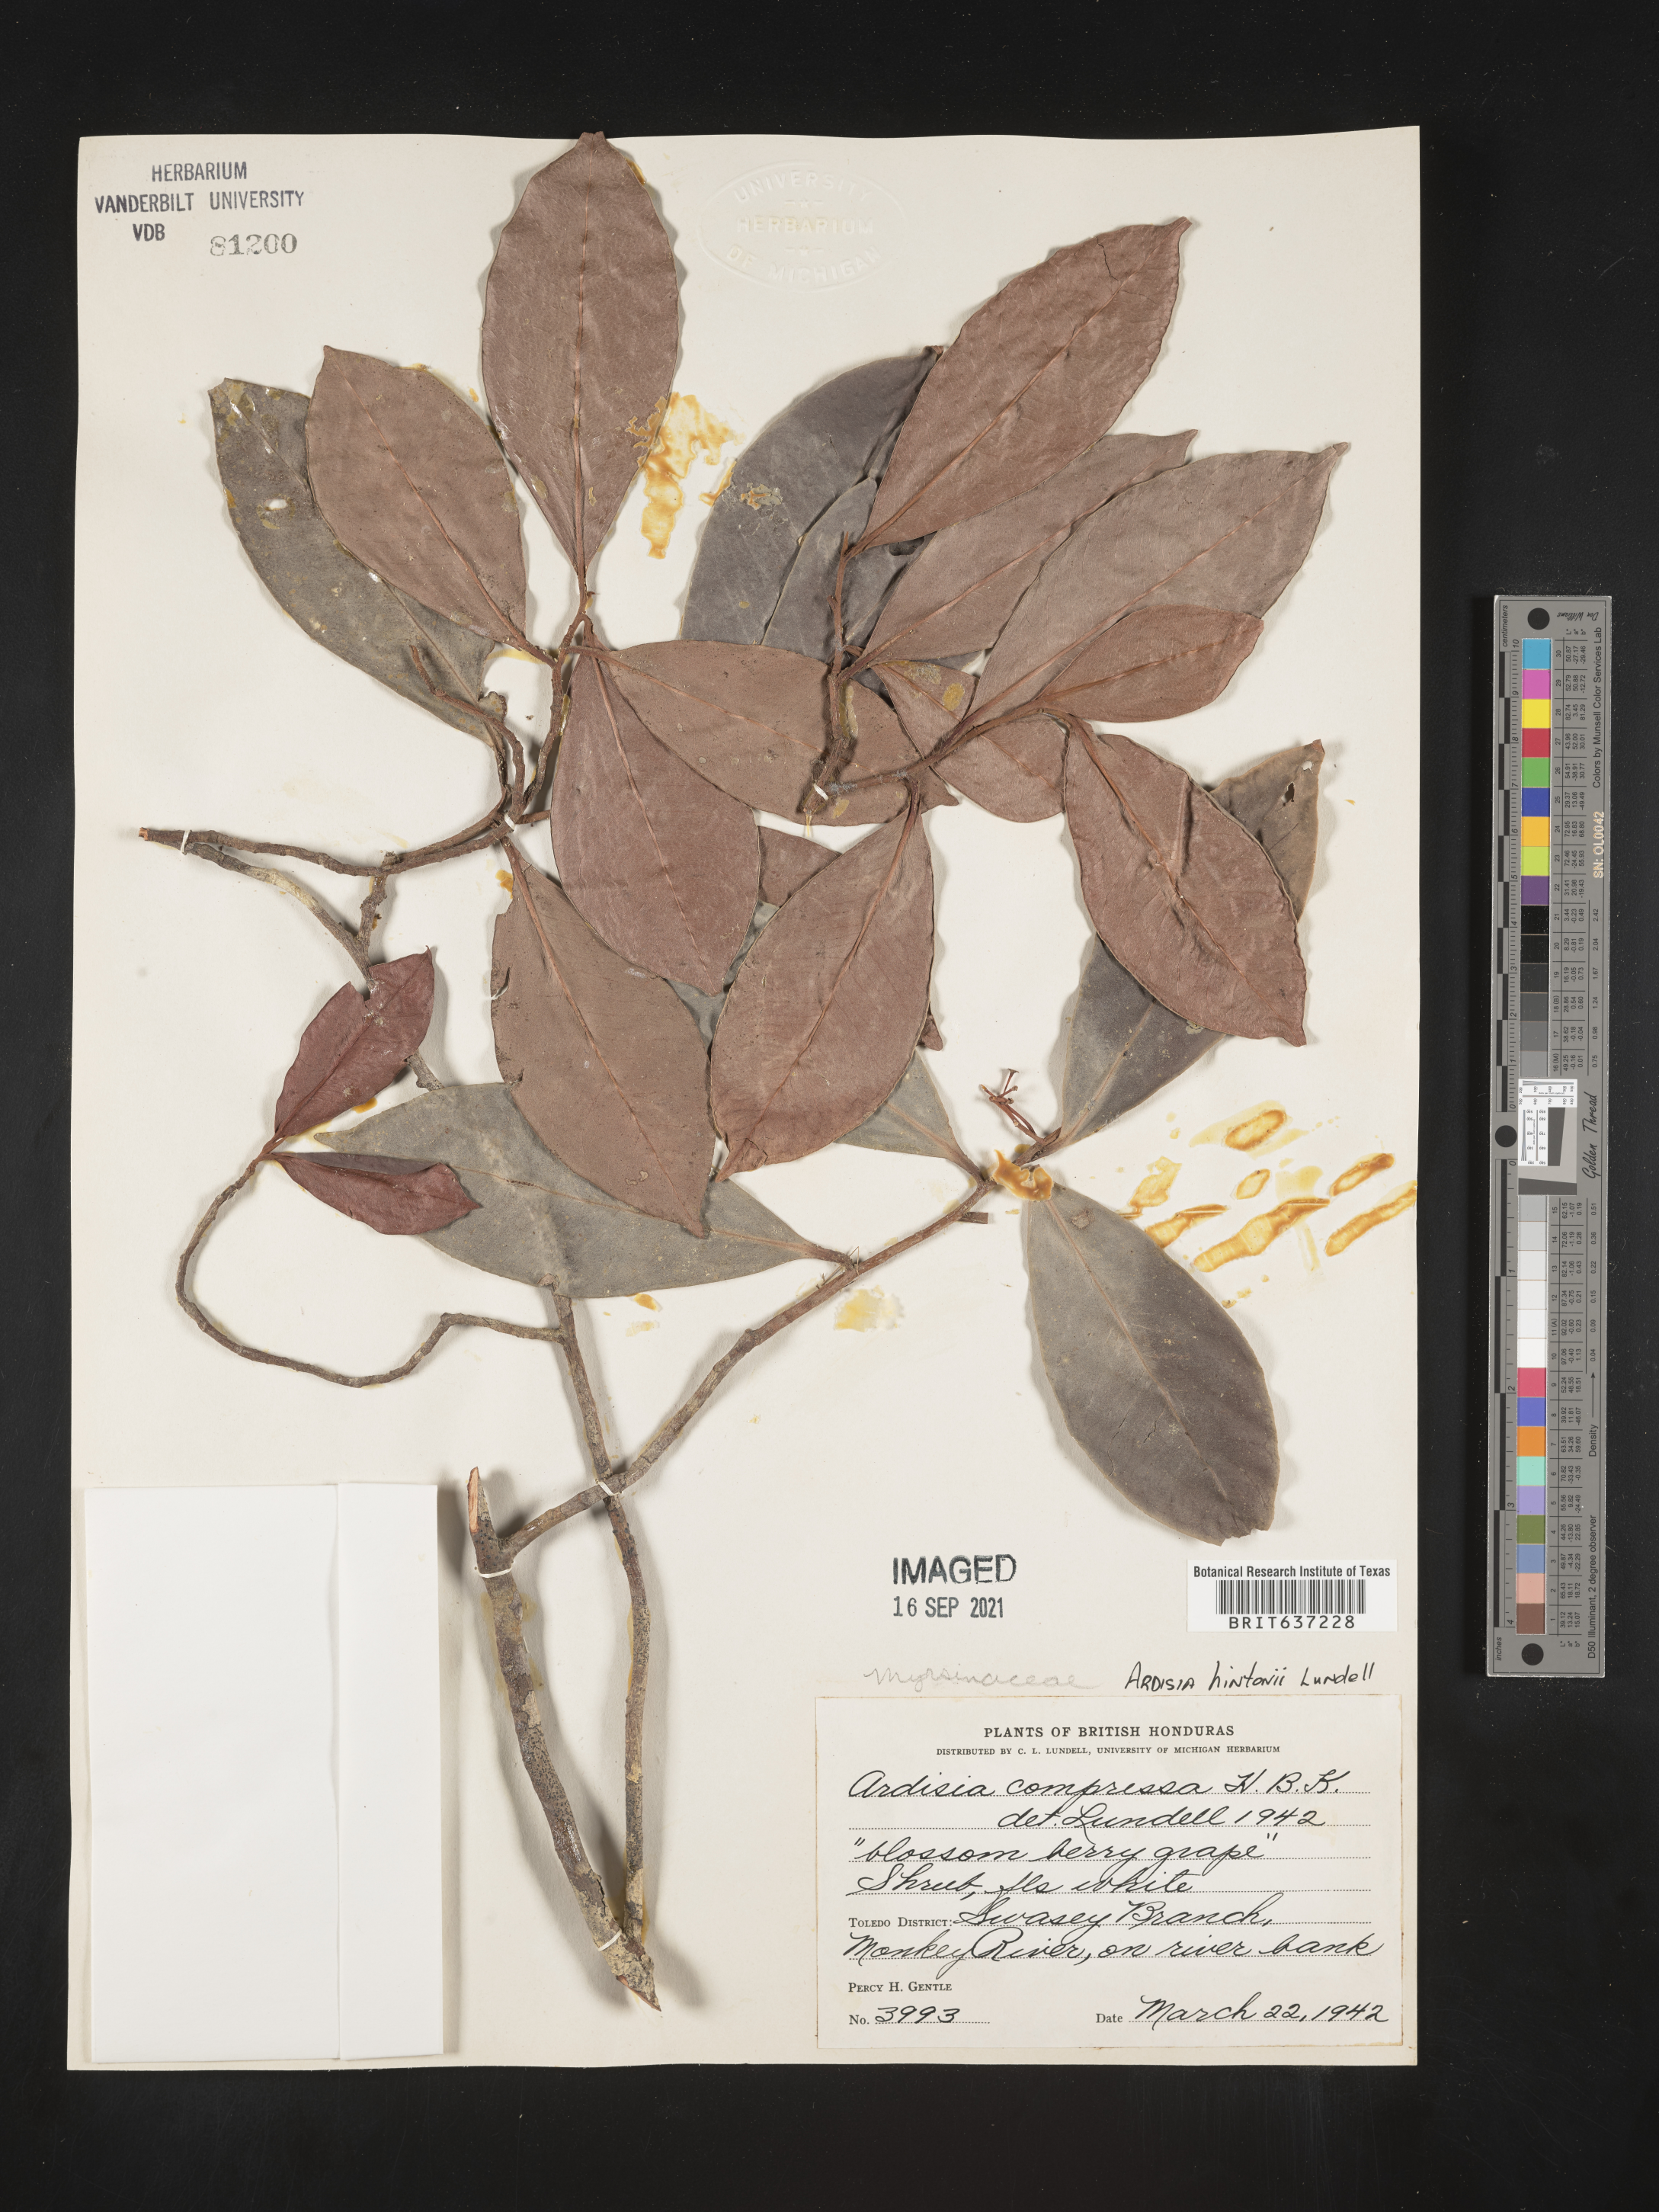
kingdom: Plantae
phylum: Tracheophyta
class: Magnoliopsida
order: Ericales
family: Primulaceae
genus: Ardisia
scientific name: Ardisia
